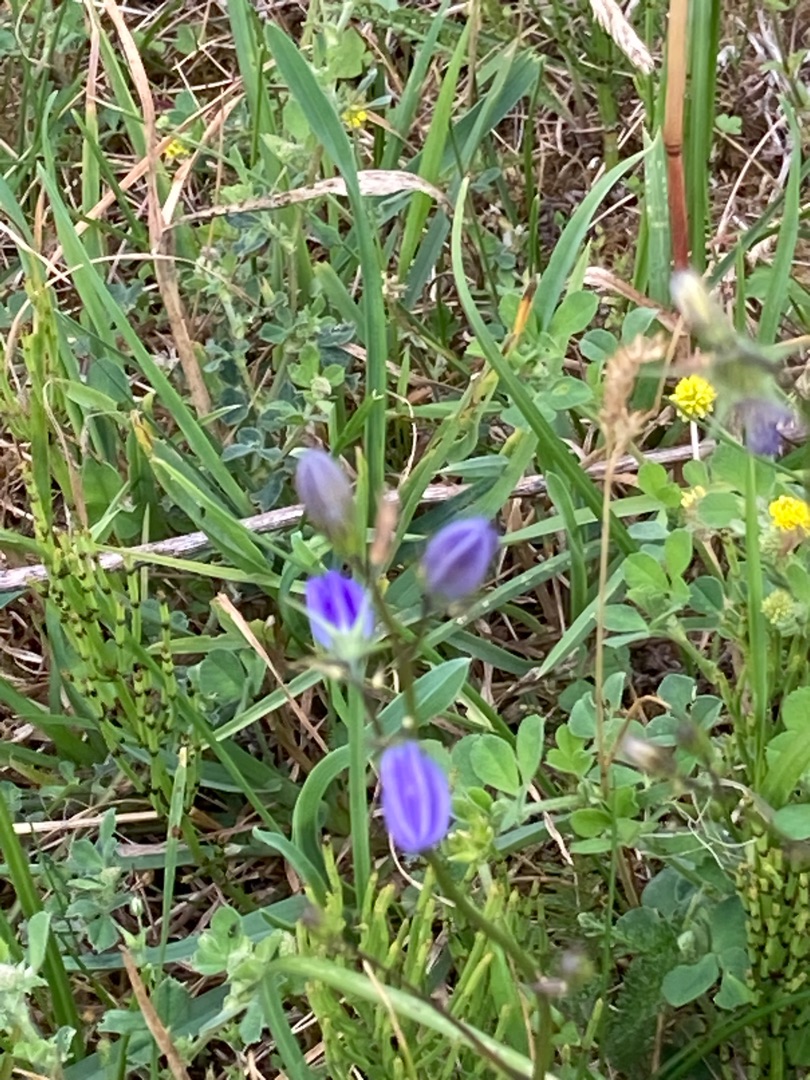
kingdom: Plantae
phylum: Tracheophyta
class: Magnoliopsida
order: Asterales
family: Campanulaceae
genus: Campanula
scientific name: Campanula rotundifolia
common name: Liden klokke
